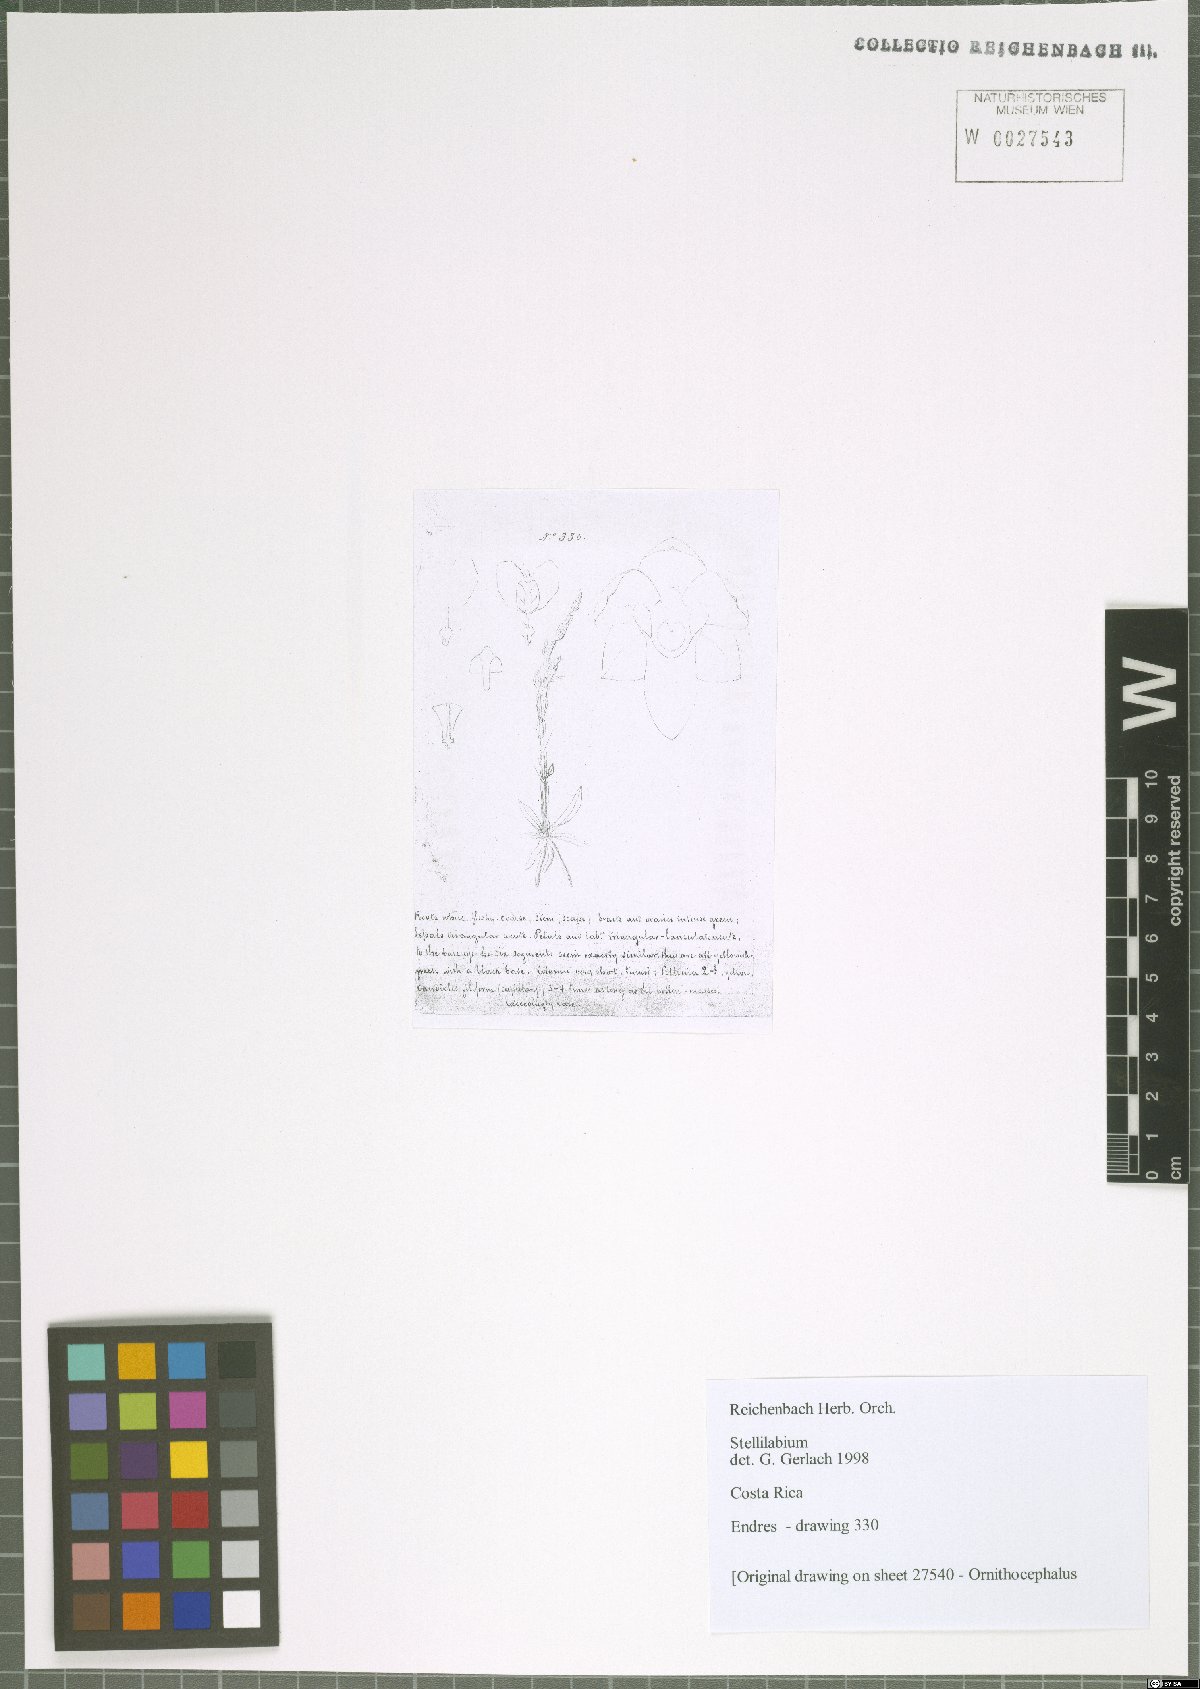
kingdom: Plantae
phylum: Tracheophyta
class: Liliopsida
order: Asparagales
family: Orchidaceae
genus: Telipogon
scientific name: Telipogon
